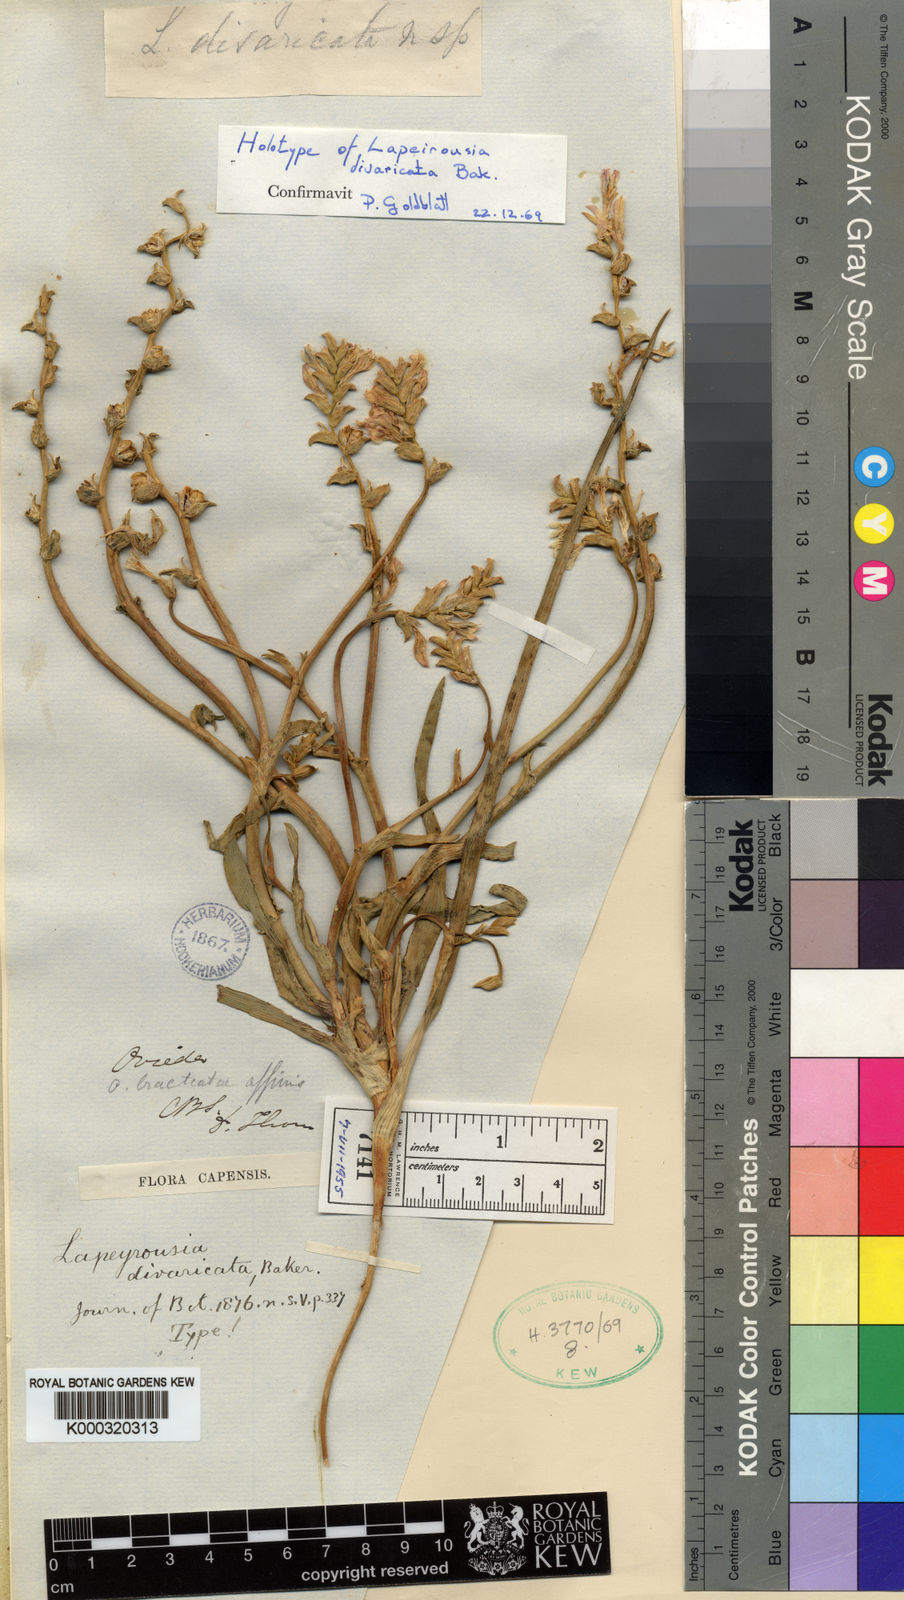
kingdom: Plantae
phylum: Tracheophyta
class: Liliopsida
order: Asparagales
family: Iridaceae
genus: Lapeirousia
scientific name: Lapeirousia divaricata
